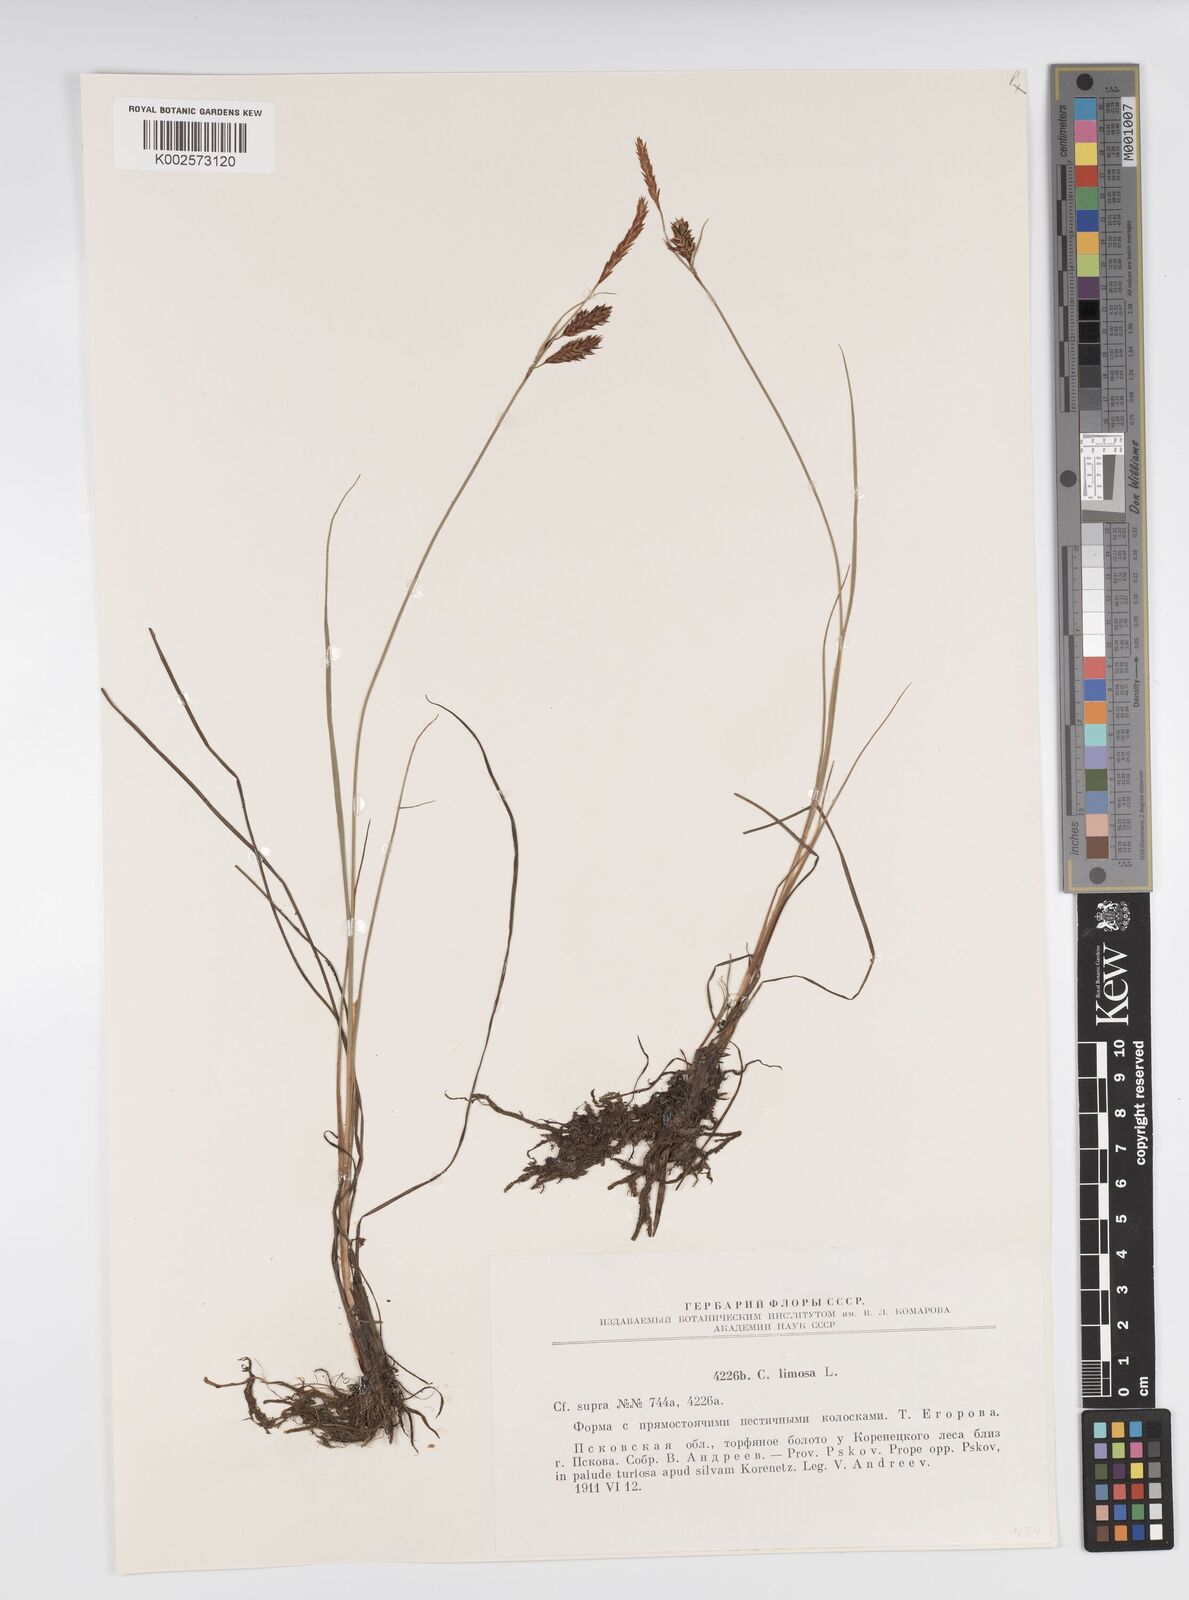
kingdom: Plantae
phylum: Tracheophyta
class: Liliopsida
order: Poales
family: Cyperaceae
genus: Carex
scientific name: Carex limosa
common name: Bog sedge
